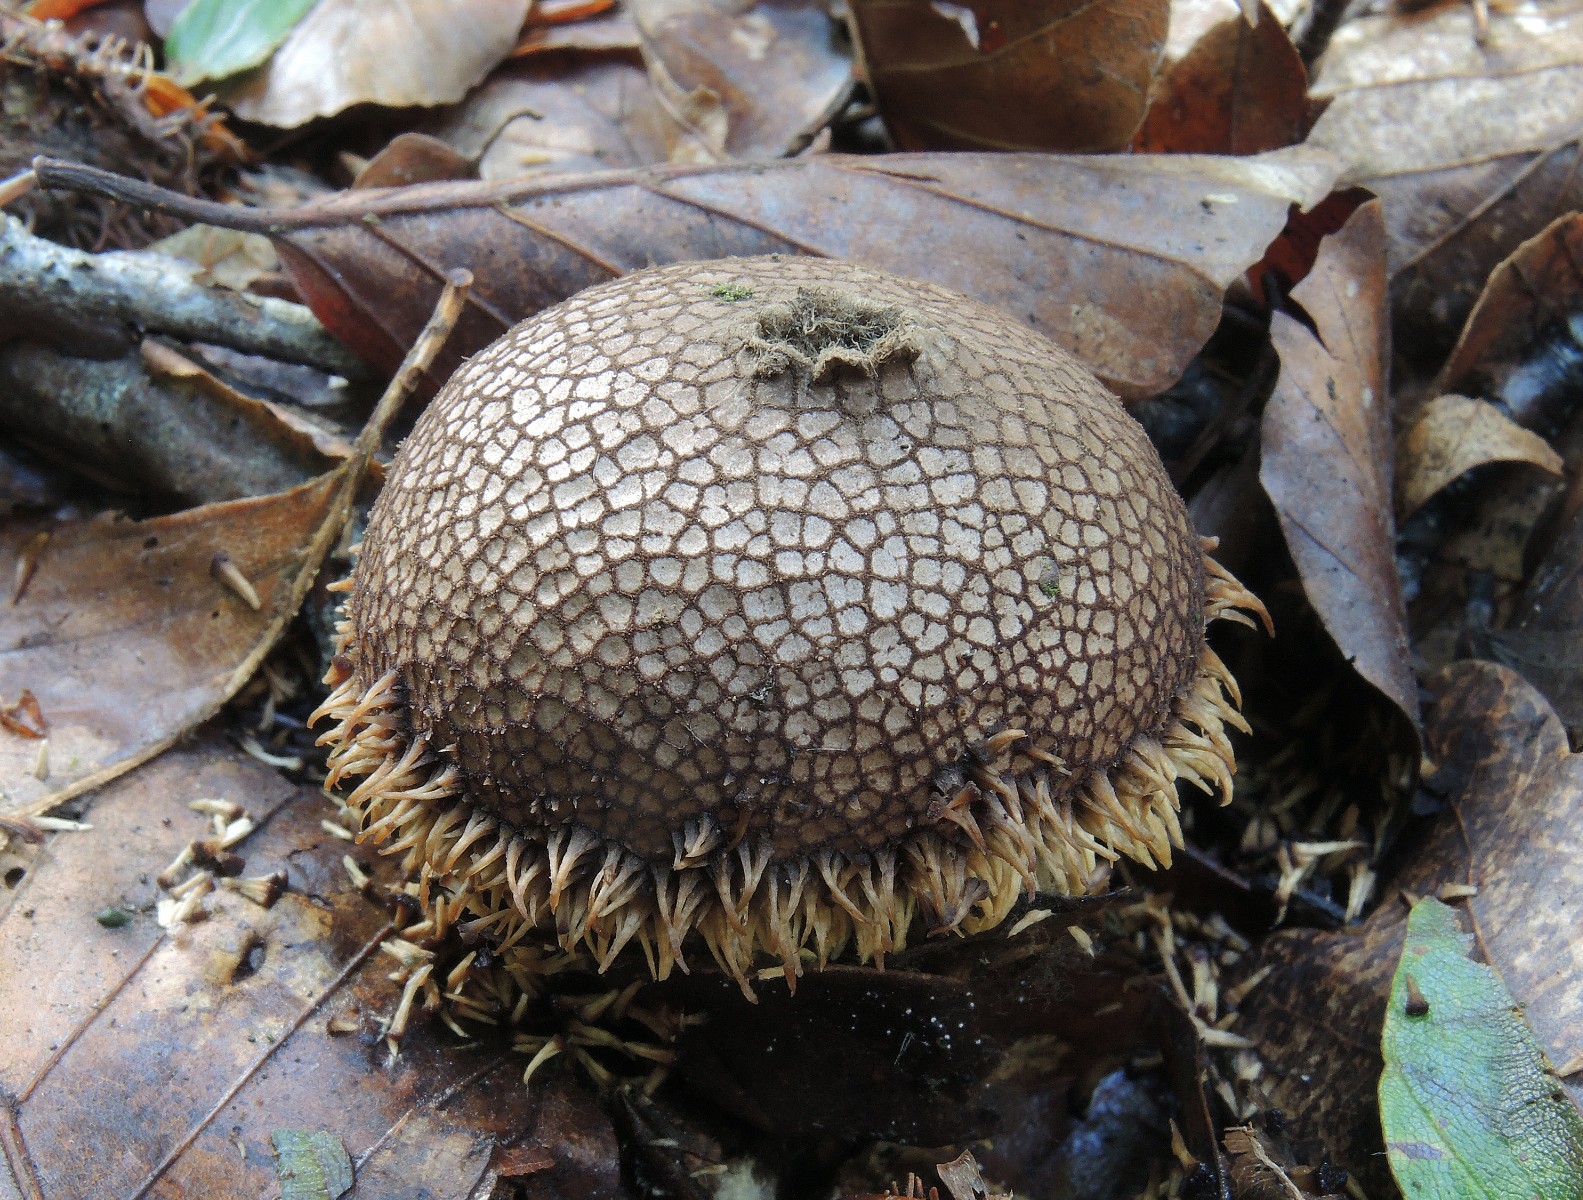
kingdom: Fungi
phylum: Basidiomycota
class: Agaricomycetes
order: Agaricales
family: Lycoperdaceae
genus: Lycoperdon
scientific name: Lycoperdon echinatum
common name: pindsvine-støvbold
